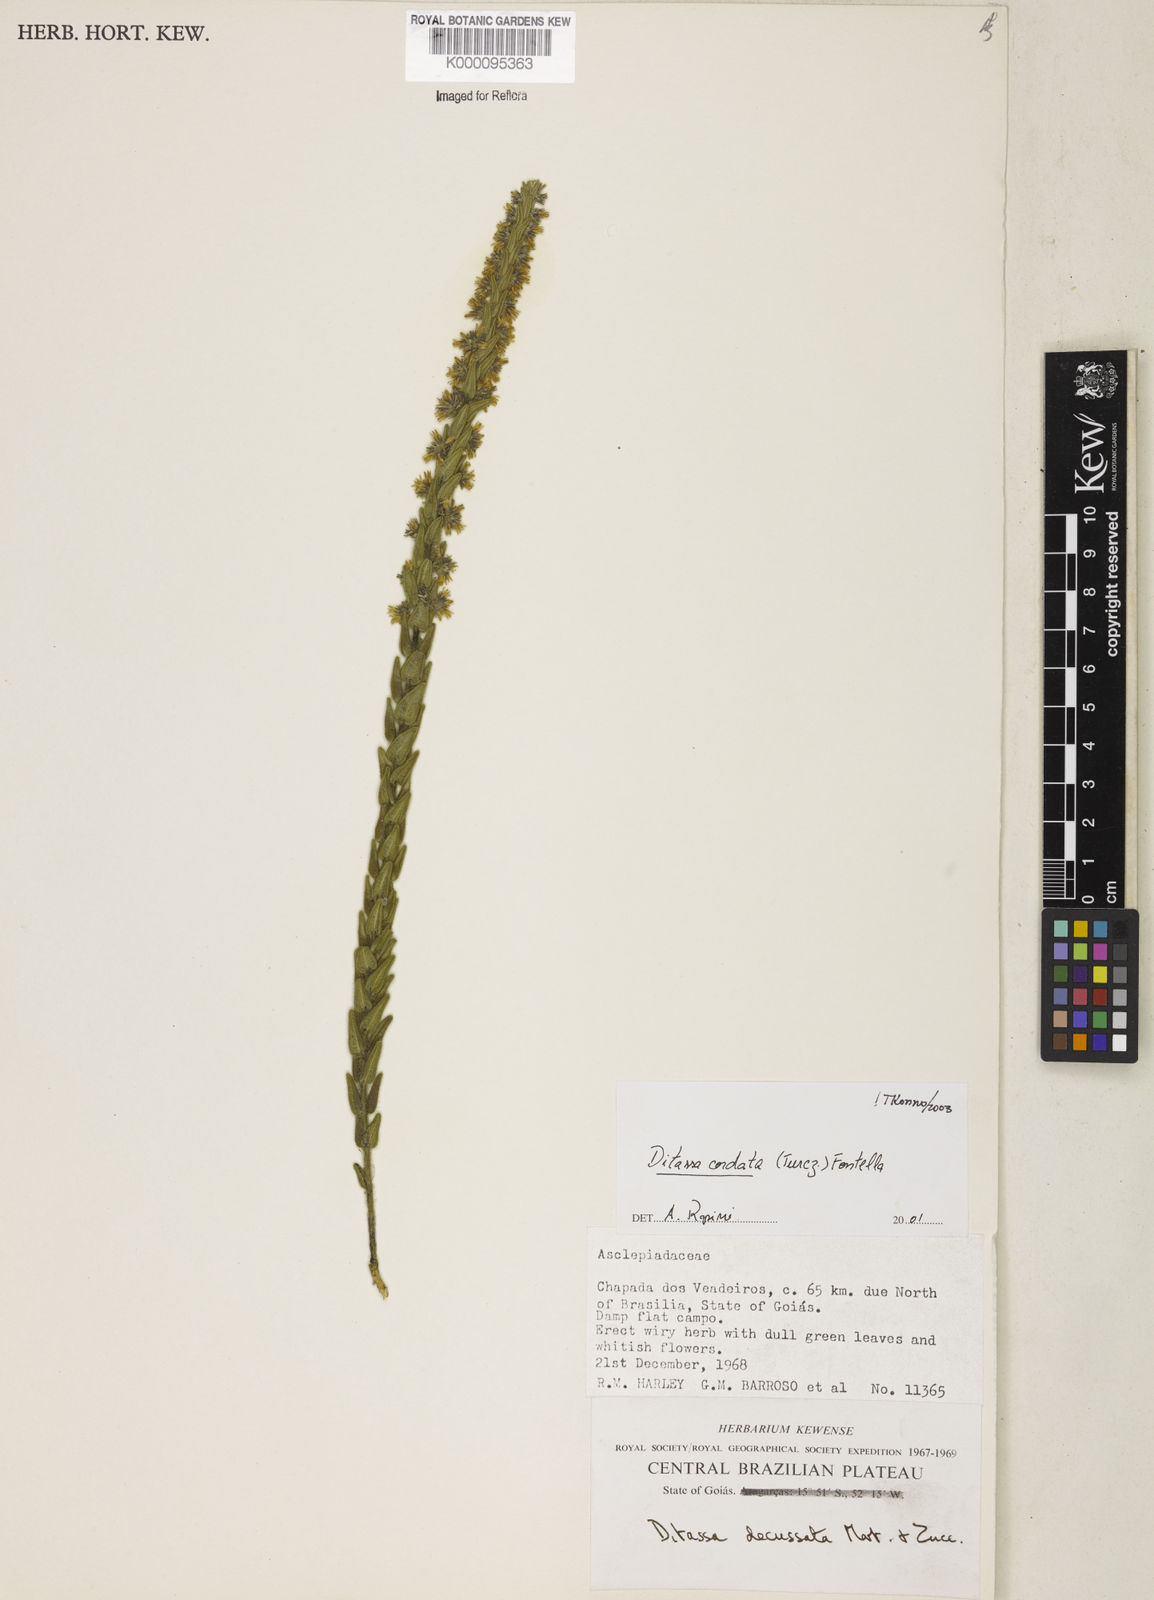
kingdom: Plantae
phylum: Tracheophyta
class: Magnoliopsida
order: Gentianales
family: Apocynaceae
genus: Minaria
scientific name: Minaria cordata
